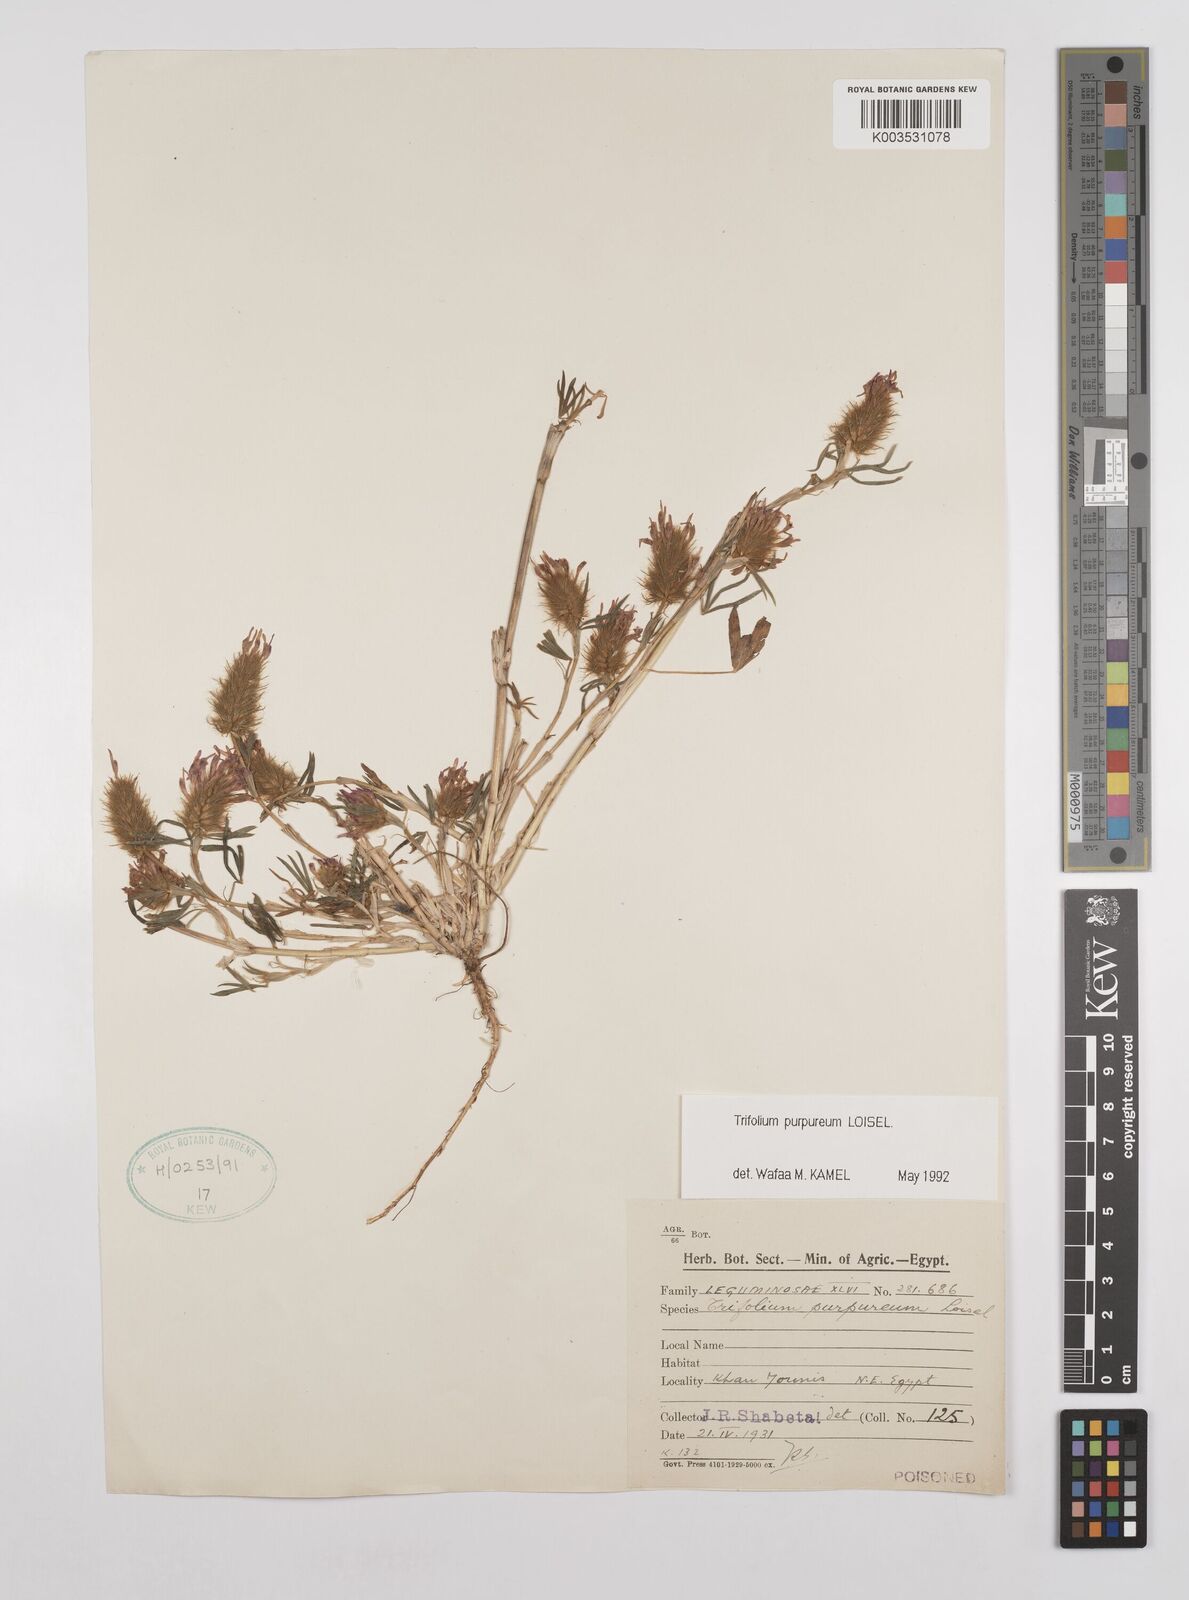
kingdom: Plantae
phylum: Tracheophyta
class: Magnoliopsida
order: Fabales
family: Fabaceae
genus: Trifolium
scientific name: Trifolium purpureum
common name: Purple clover
